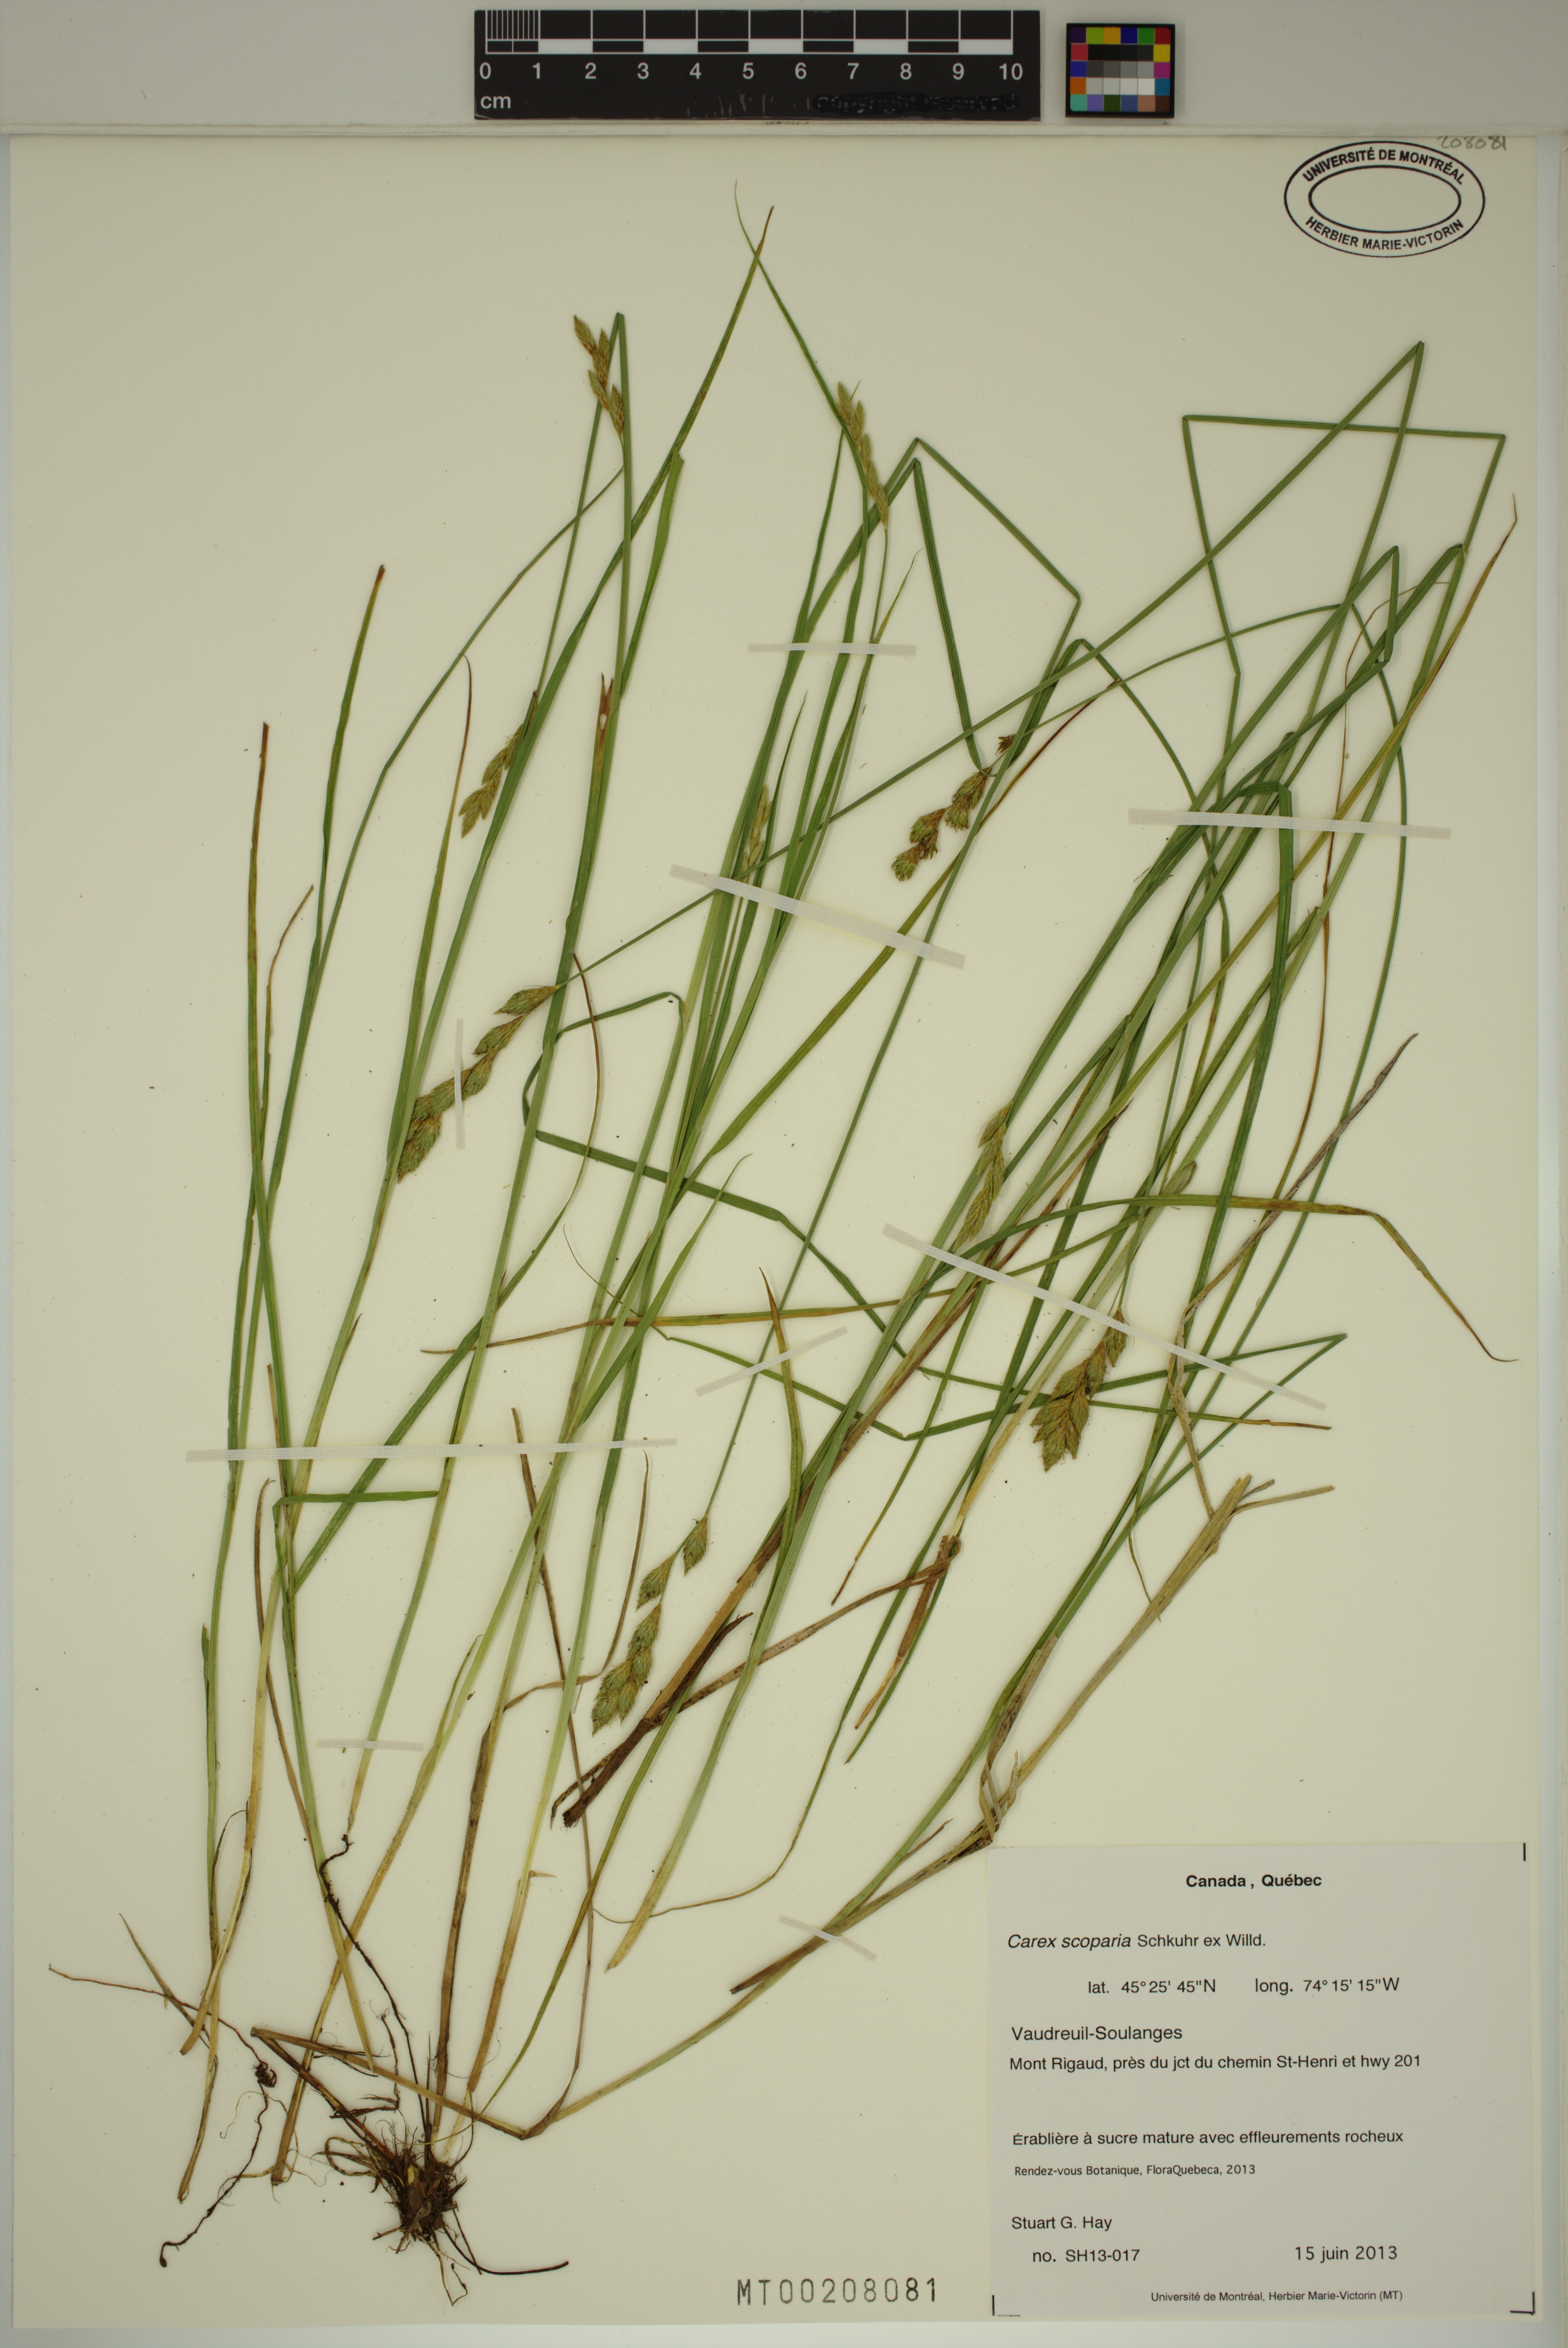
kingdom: Plantae
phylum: Tracheophyta
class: Liliopsida
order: Poales
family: Cyperaceae
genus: Carex
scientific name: Carex scoparia
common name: Broom sedge
